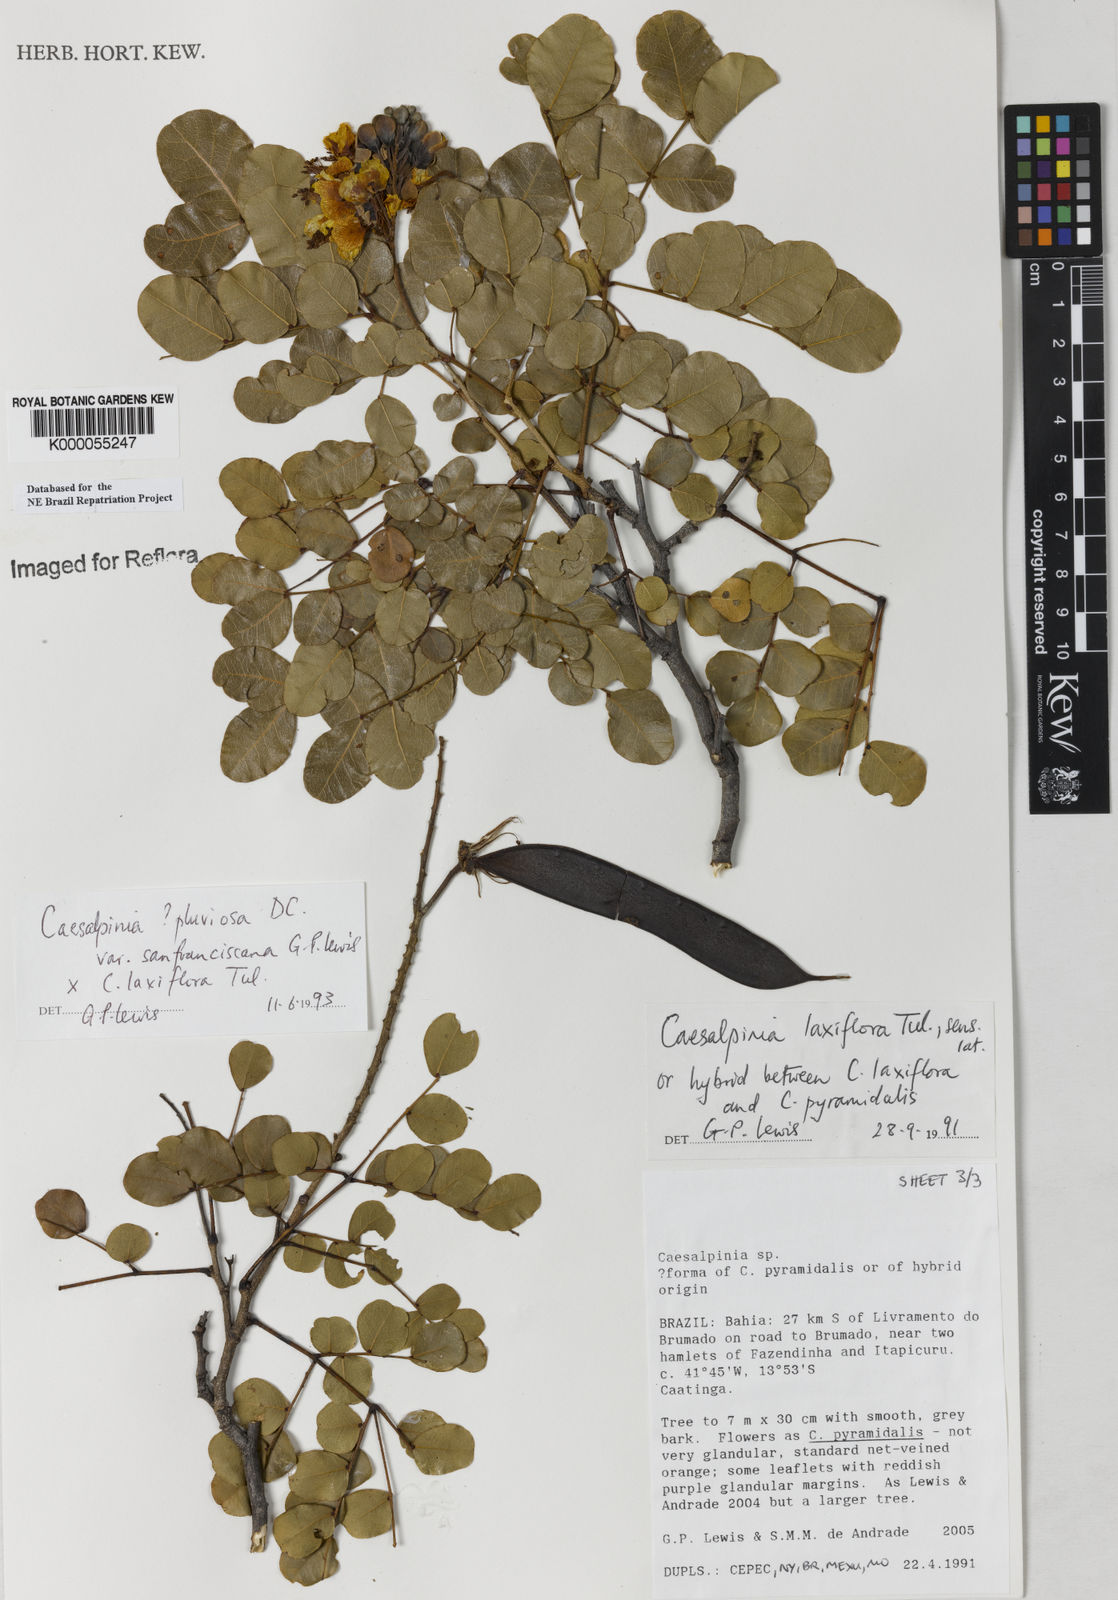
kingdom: Plantae
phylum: Tracheophyta
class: Magnoliopsida
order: Fabales
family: Fabaceae
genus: Cenostigma
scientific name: Cenostigma pluviosum
